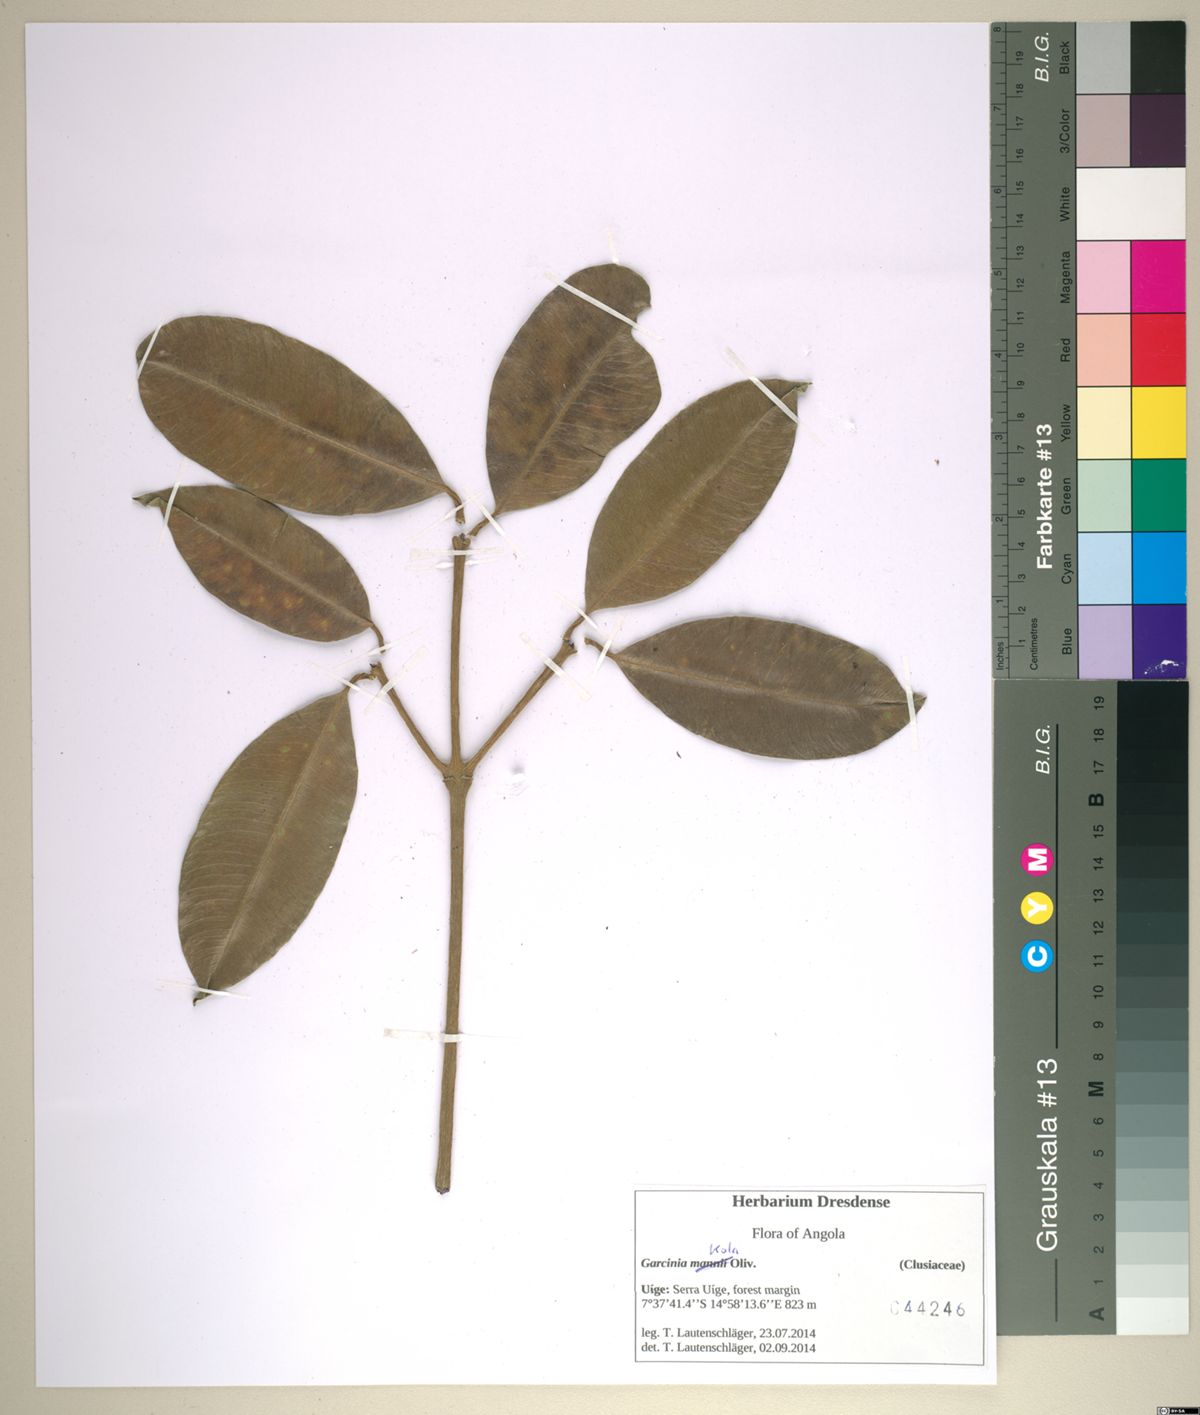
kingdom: Plantae
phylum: Tracheophyta
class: Magnoliopsida
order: Malpighiales
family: Clusiaceae
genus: Garcinia
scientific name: Garcinia kola
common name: Bitter-kola
